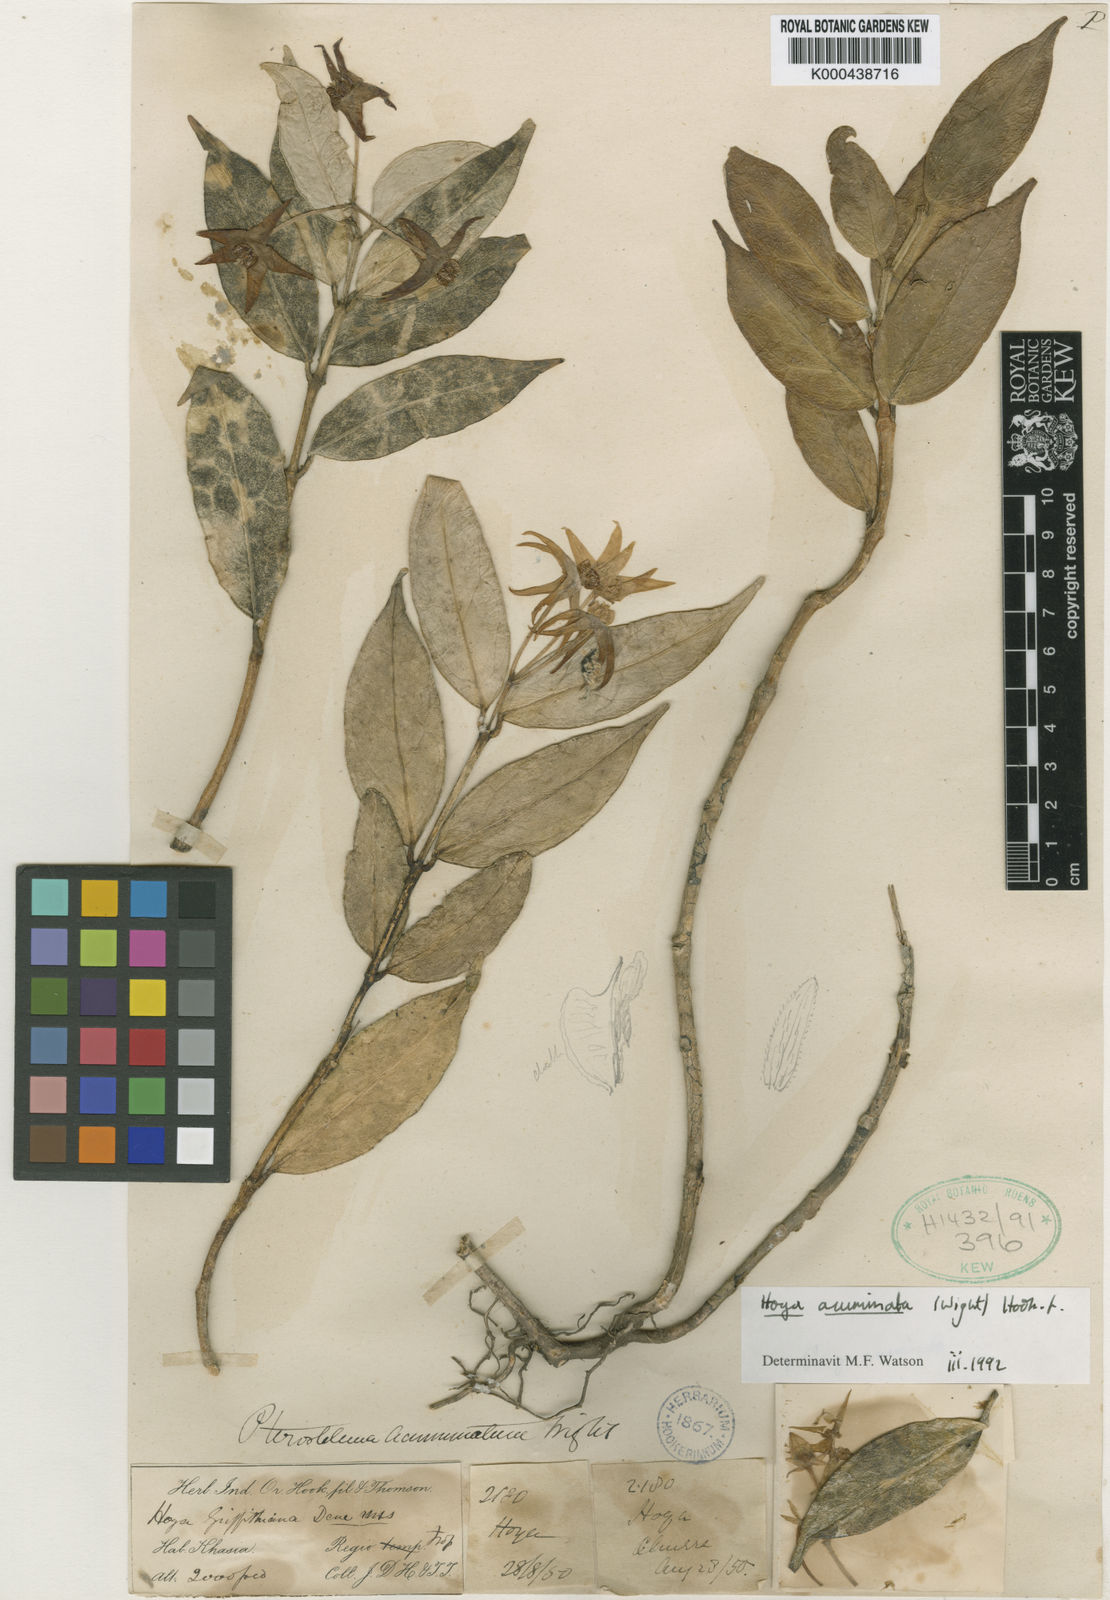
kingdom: Plantae
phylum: Tracheophyta
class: Magnoliopsida
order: Gentianales
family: Apocynaceae
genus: Hoya
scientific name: Hoya acuminata
